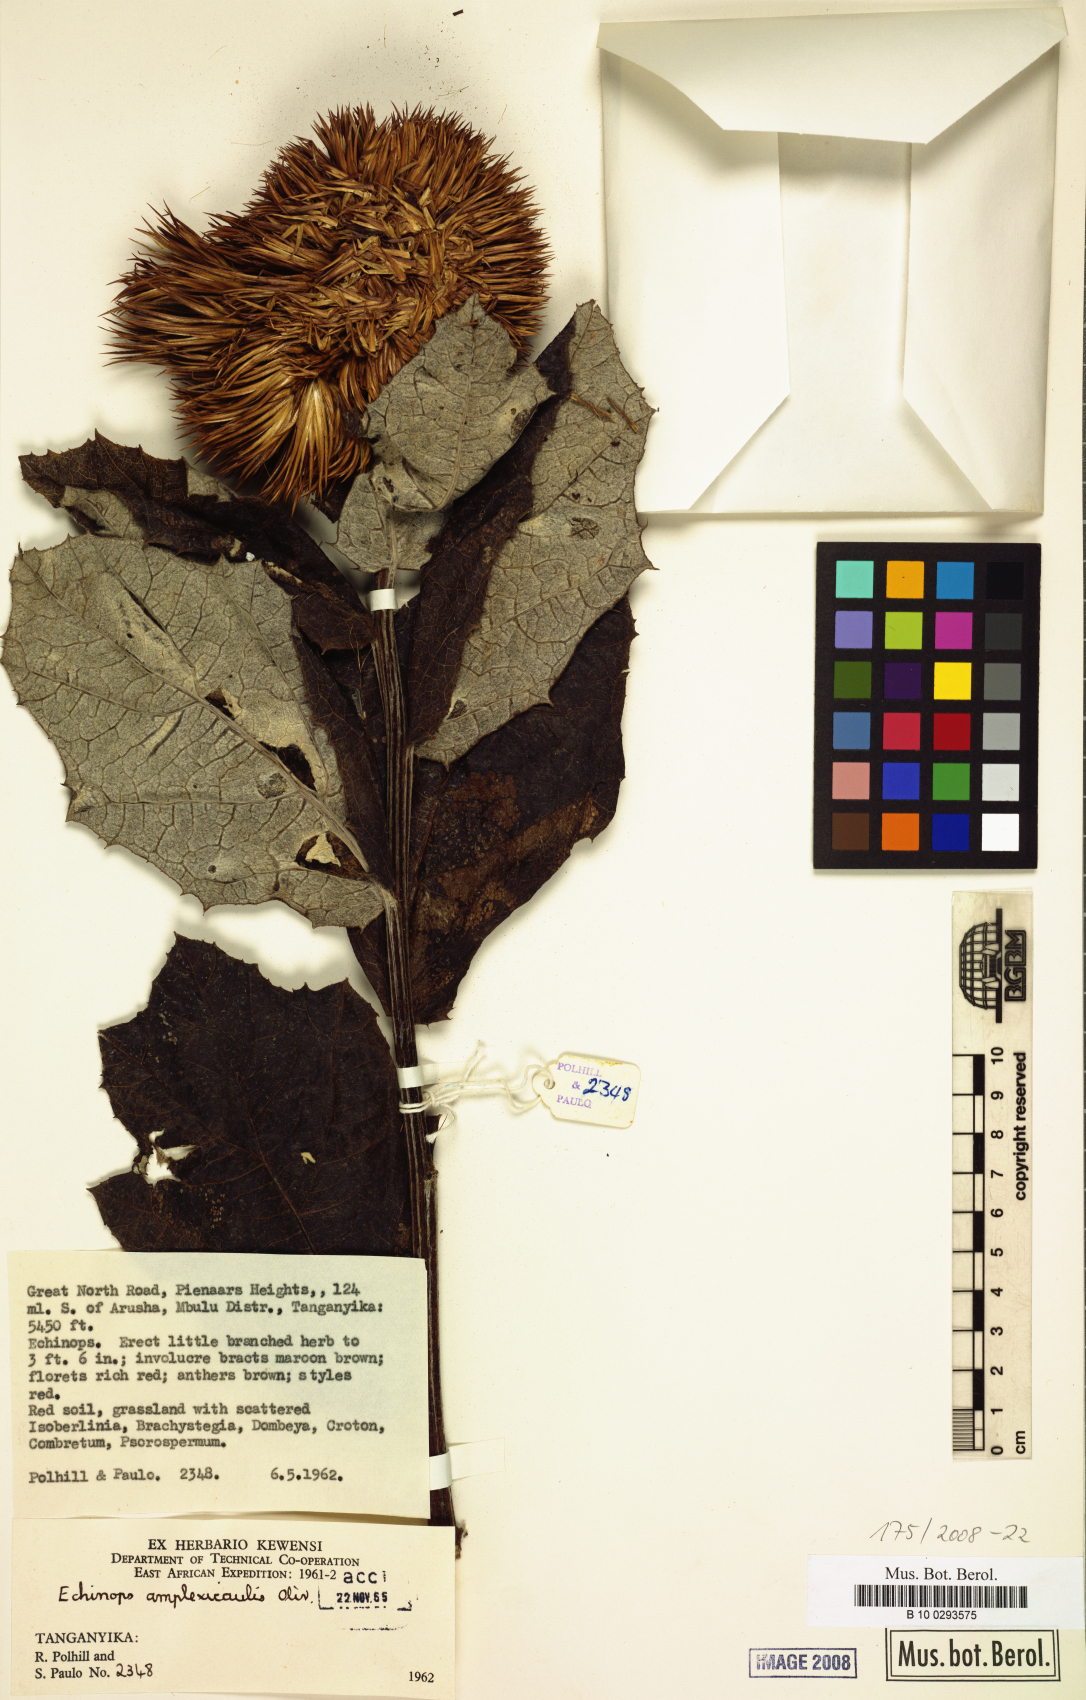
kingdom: Plantae
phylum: Tracheophyta
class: Magnoliopsida
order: Asterales
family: Asteraceae
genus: Echinops
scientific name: Echinops amplexicaulis
